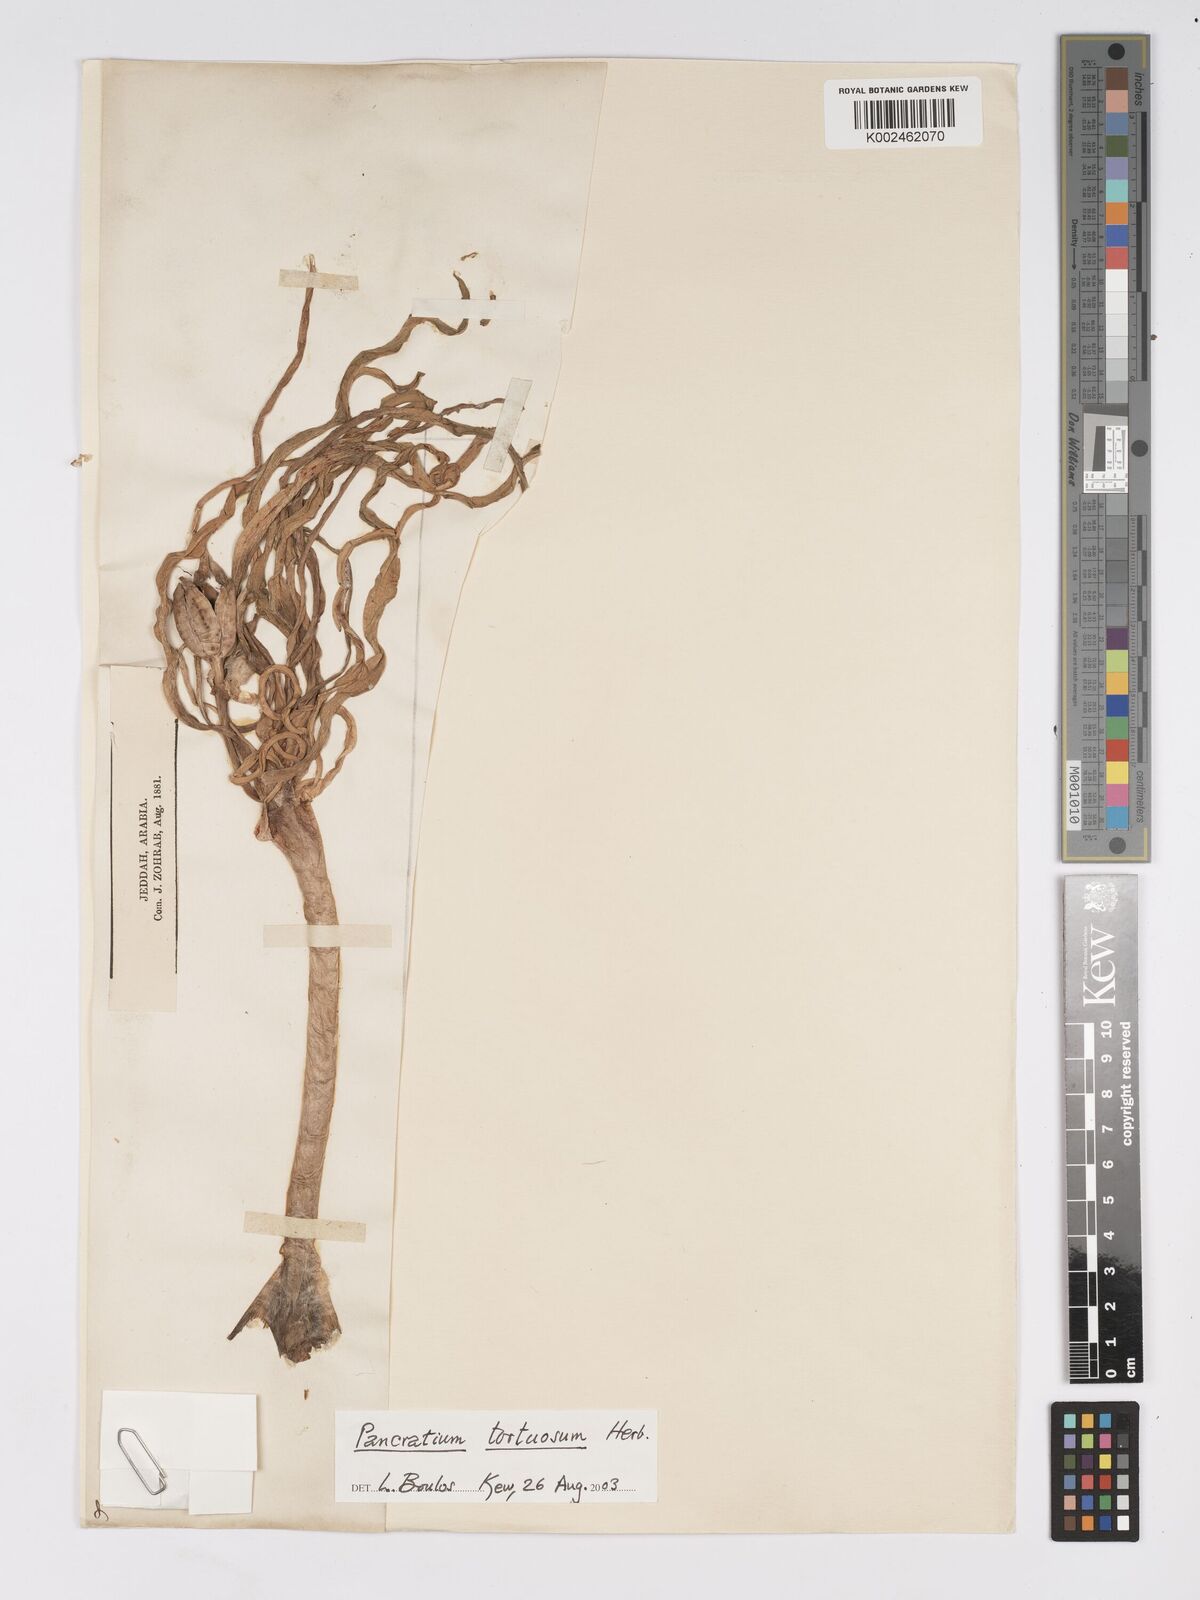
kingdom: Plantae
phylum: Tracheophyta
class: Liliopsida
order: Asparagales
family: Amaryllidaceae
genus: Pancratium
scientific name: Pancratium tortuosum
